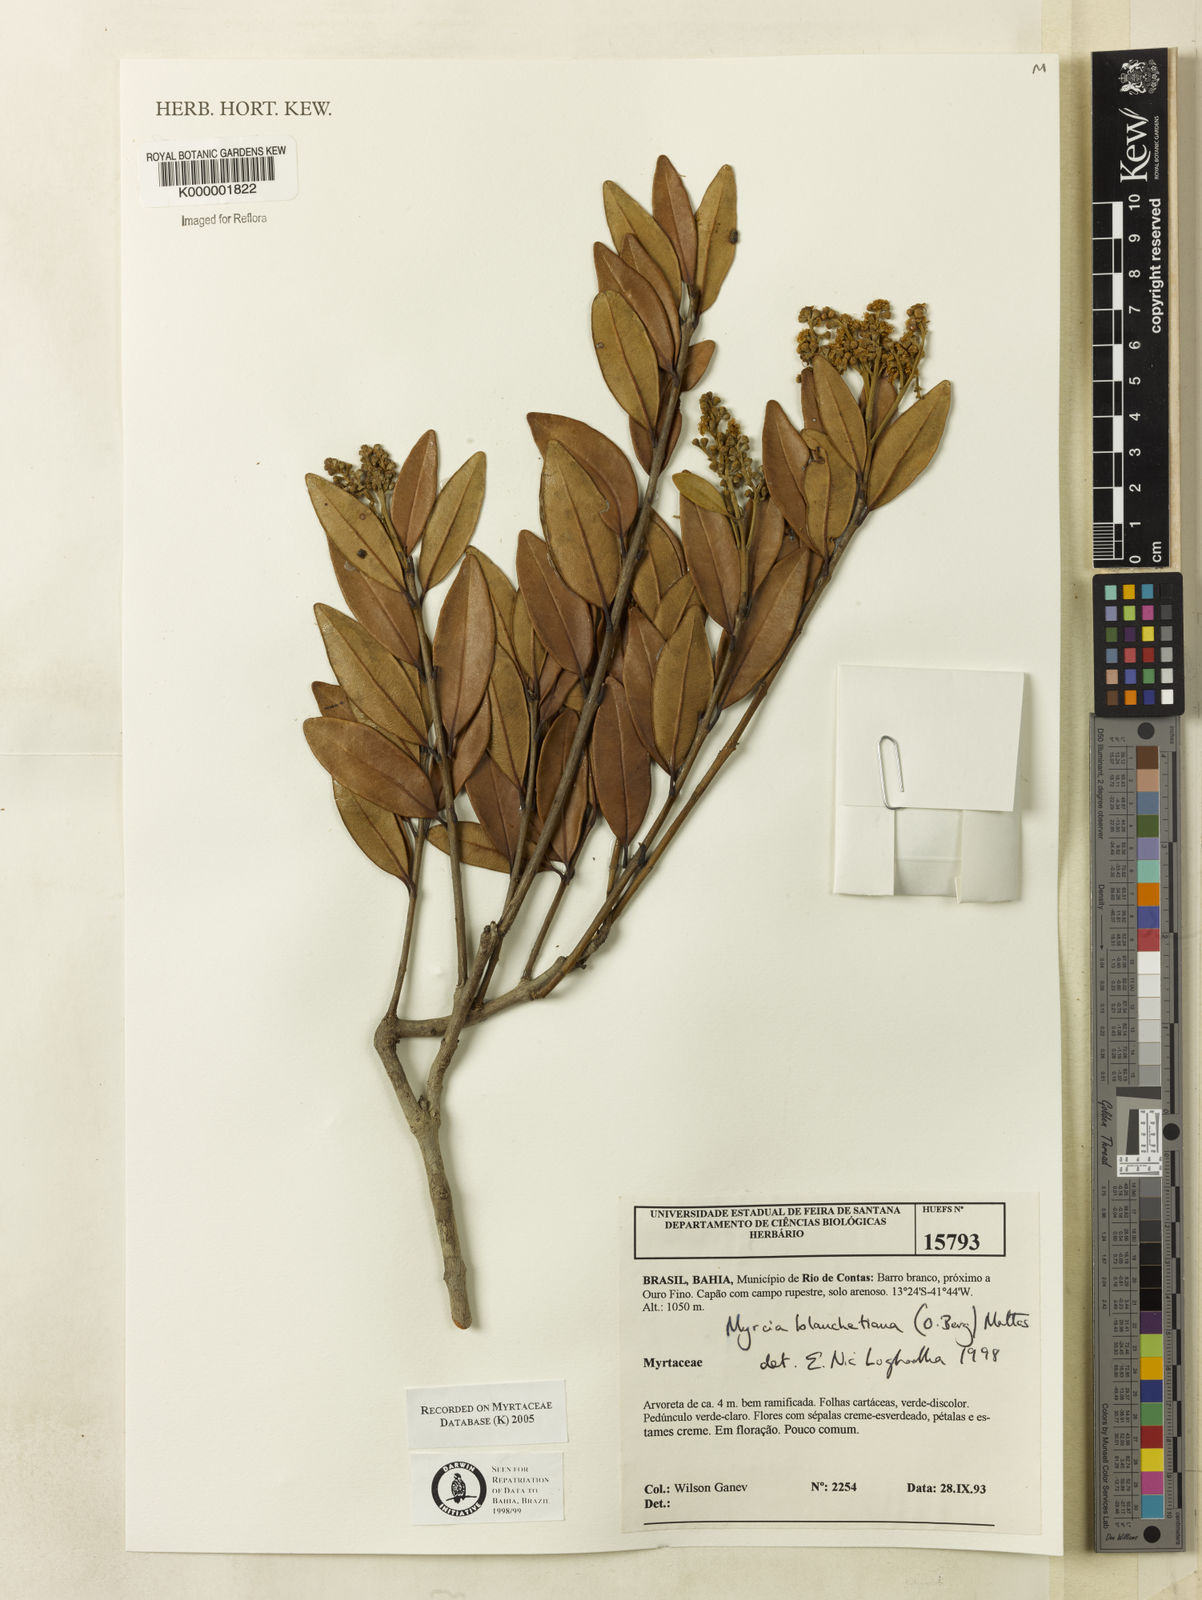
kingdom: Plantae
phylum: Tracheophyta
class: Magnoliopsida
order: Myrtales
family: Myrtaceae
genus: Myrcia
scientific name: Myrcia blanchetiana
